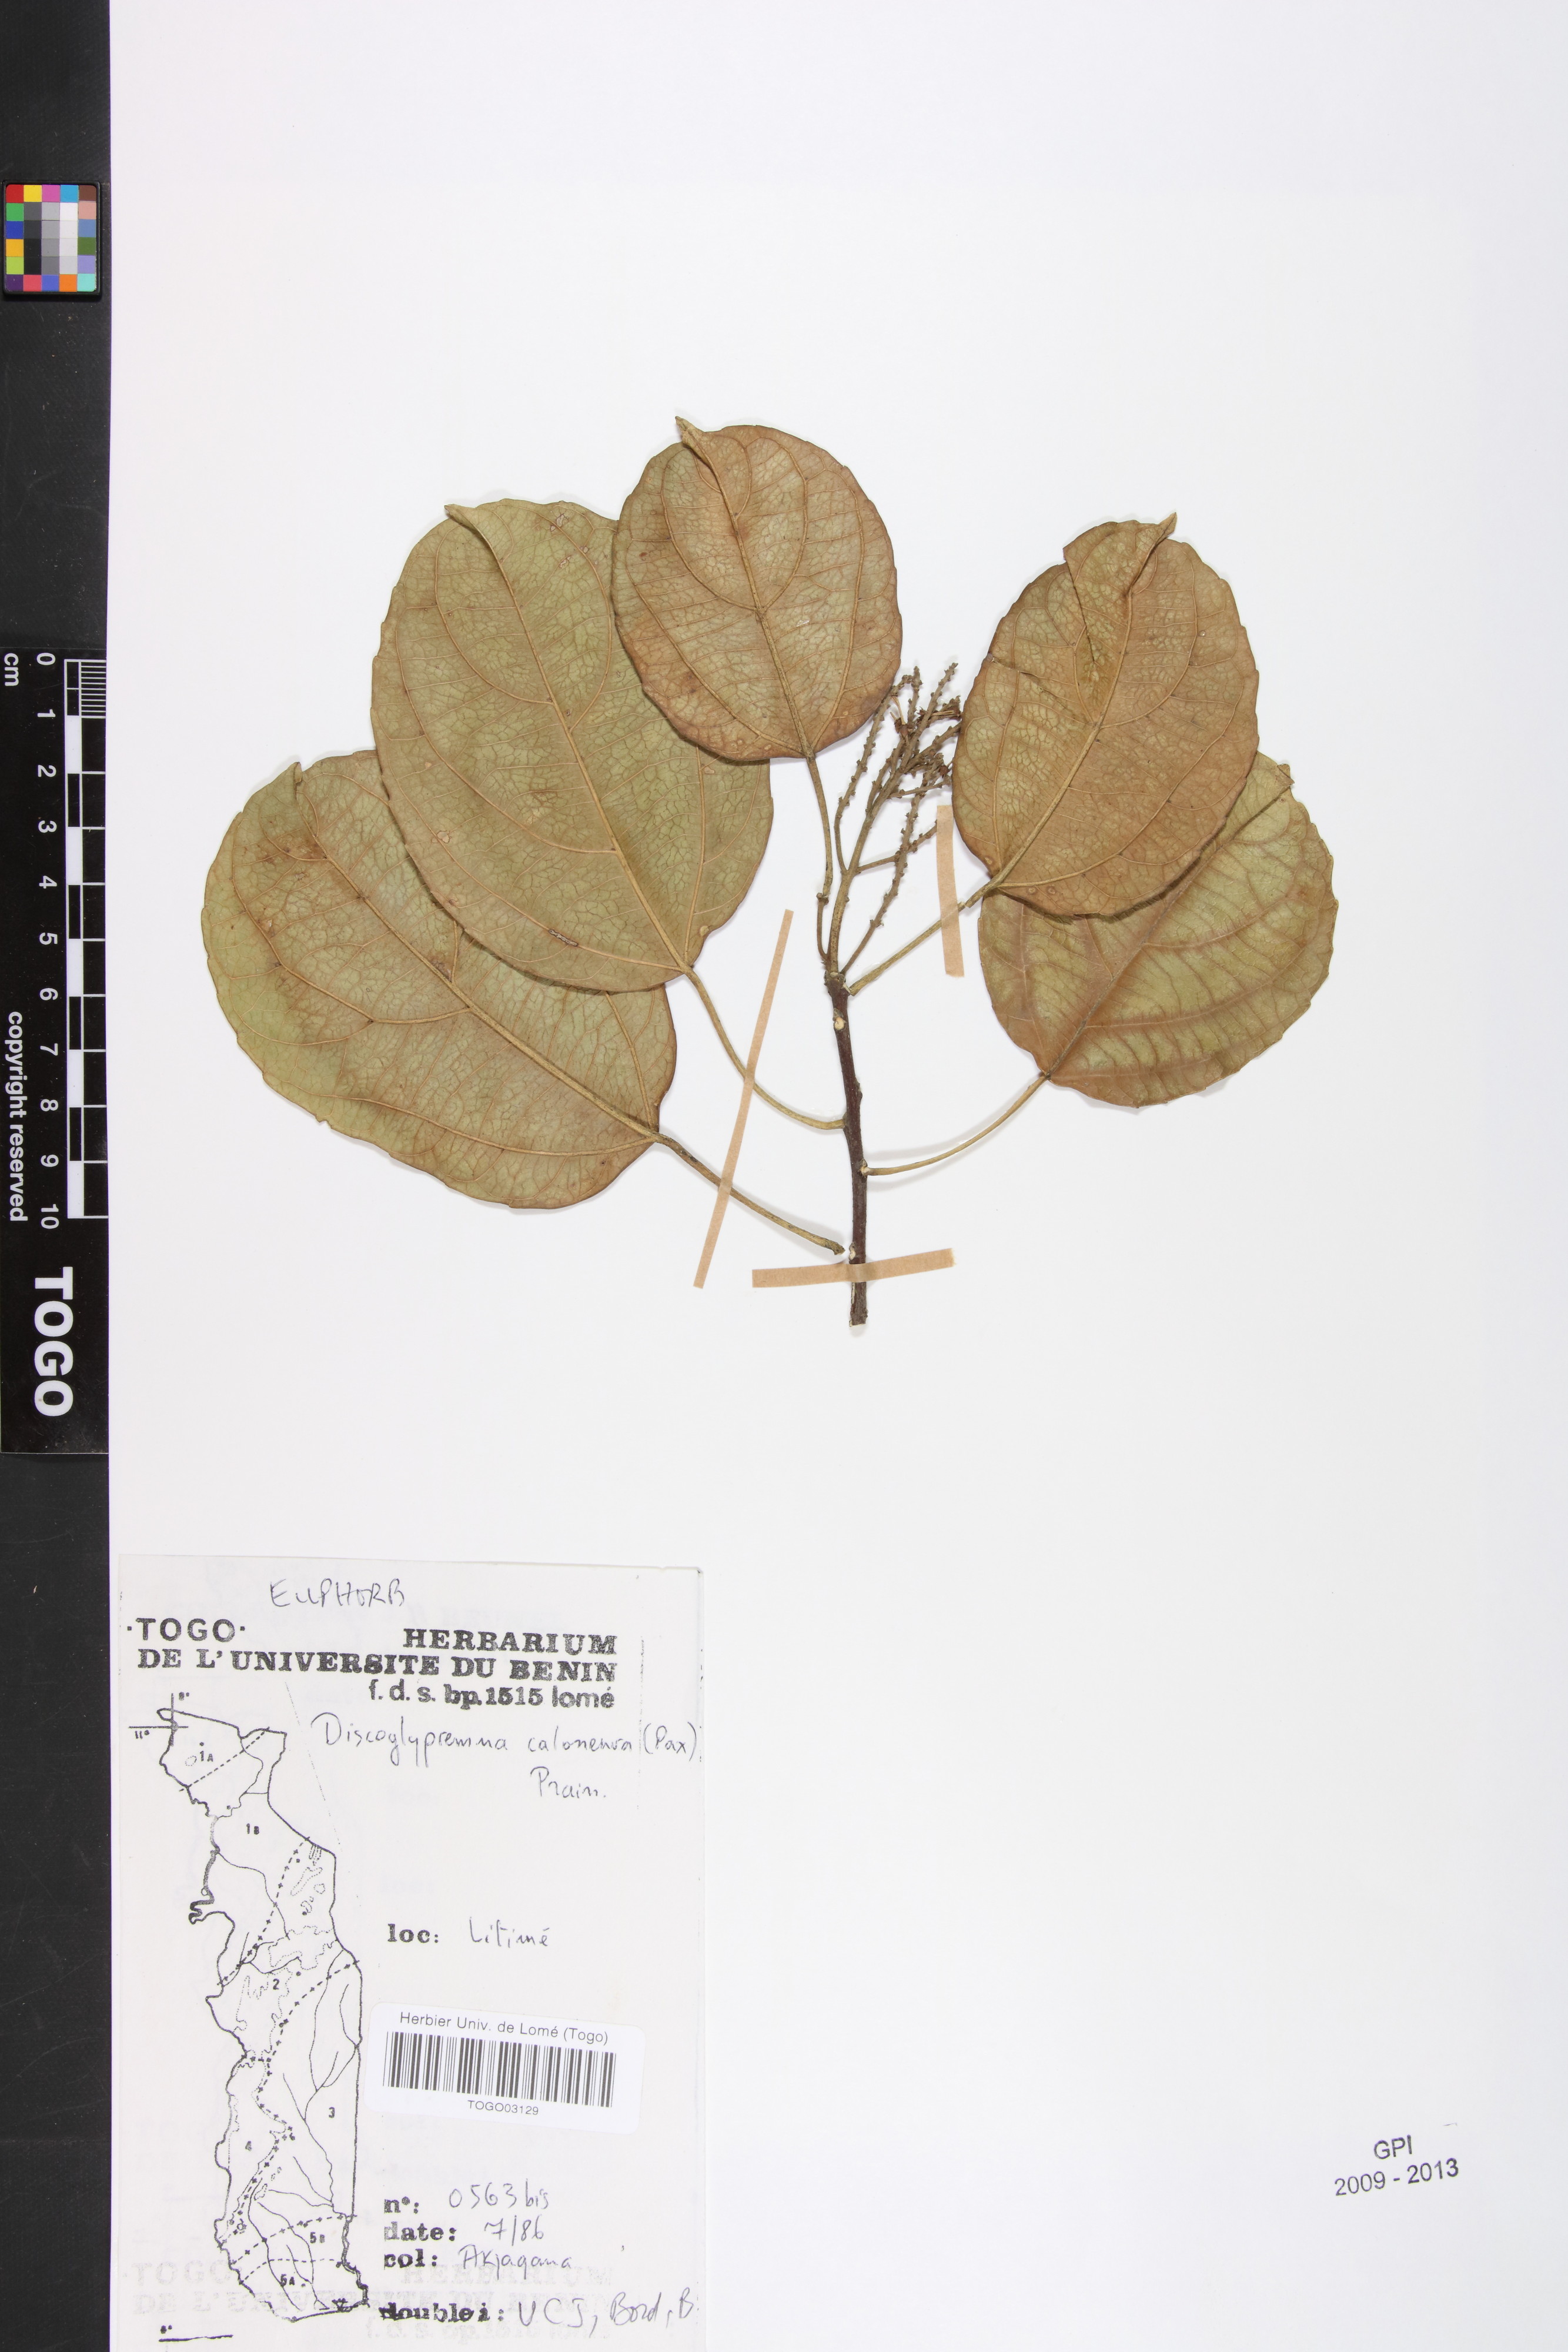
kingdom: Plantae
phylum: Tracheophyta
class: Magnoliopsida
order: Malpighiales
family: Euphorbiaceae
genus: Discoglypremna
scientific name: Discoglypremna caloneura
